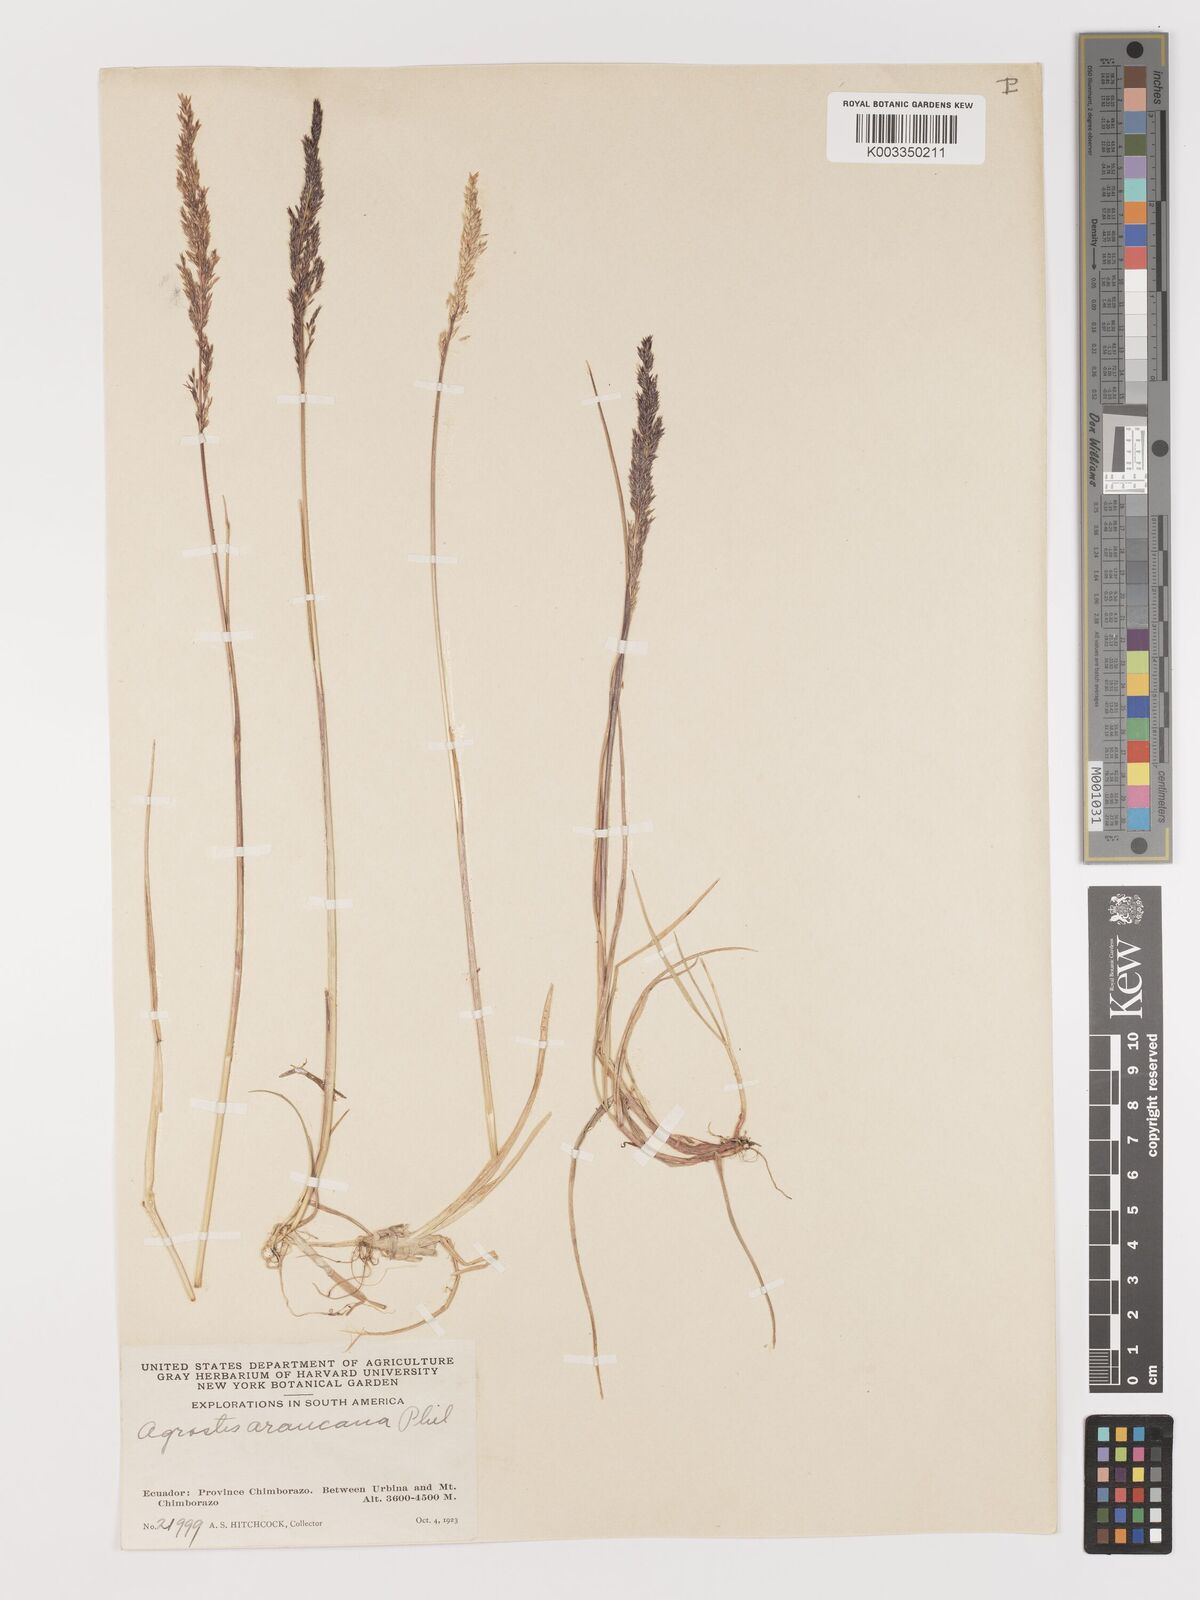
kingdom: Plantae
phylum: Tracheophyta
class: Liliopsida
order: Poales
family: Poaceae
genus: Agrostis
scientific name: Agrostis
